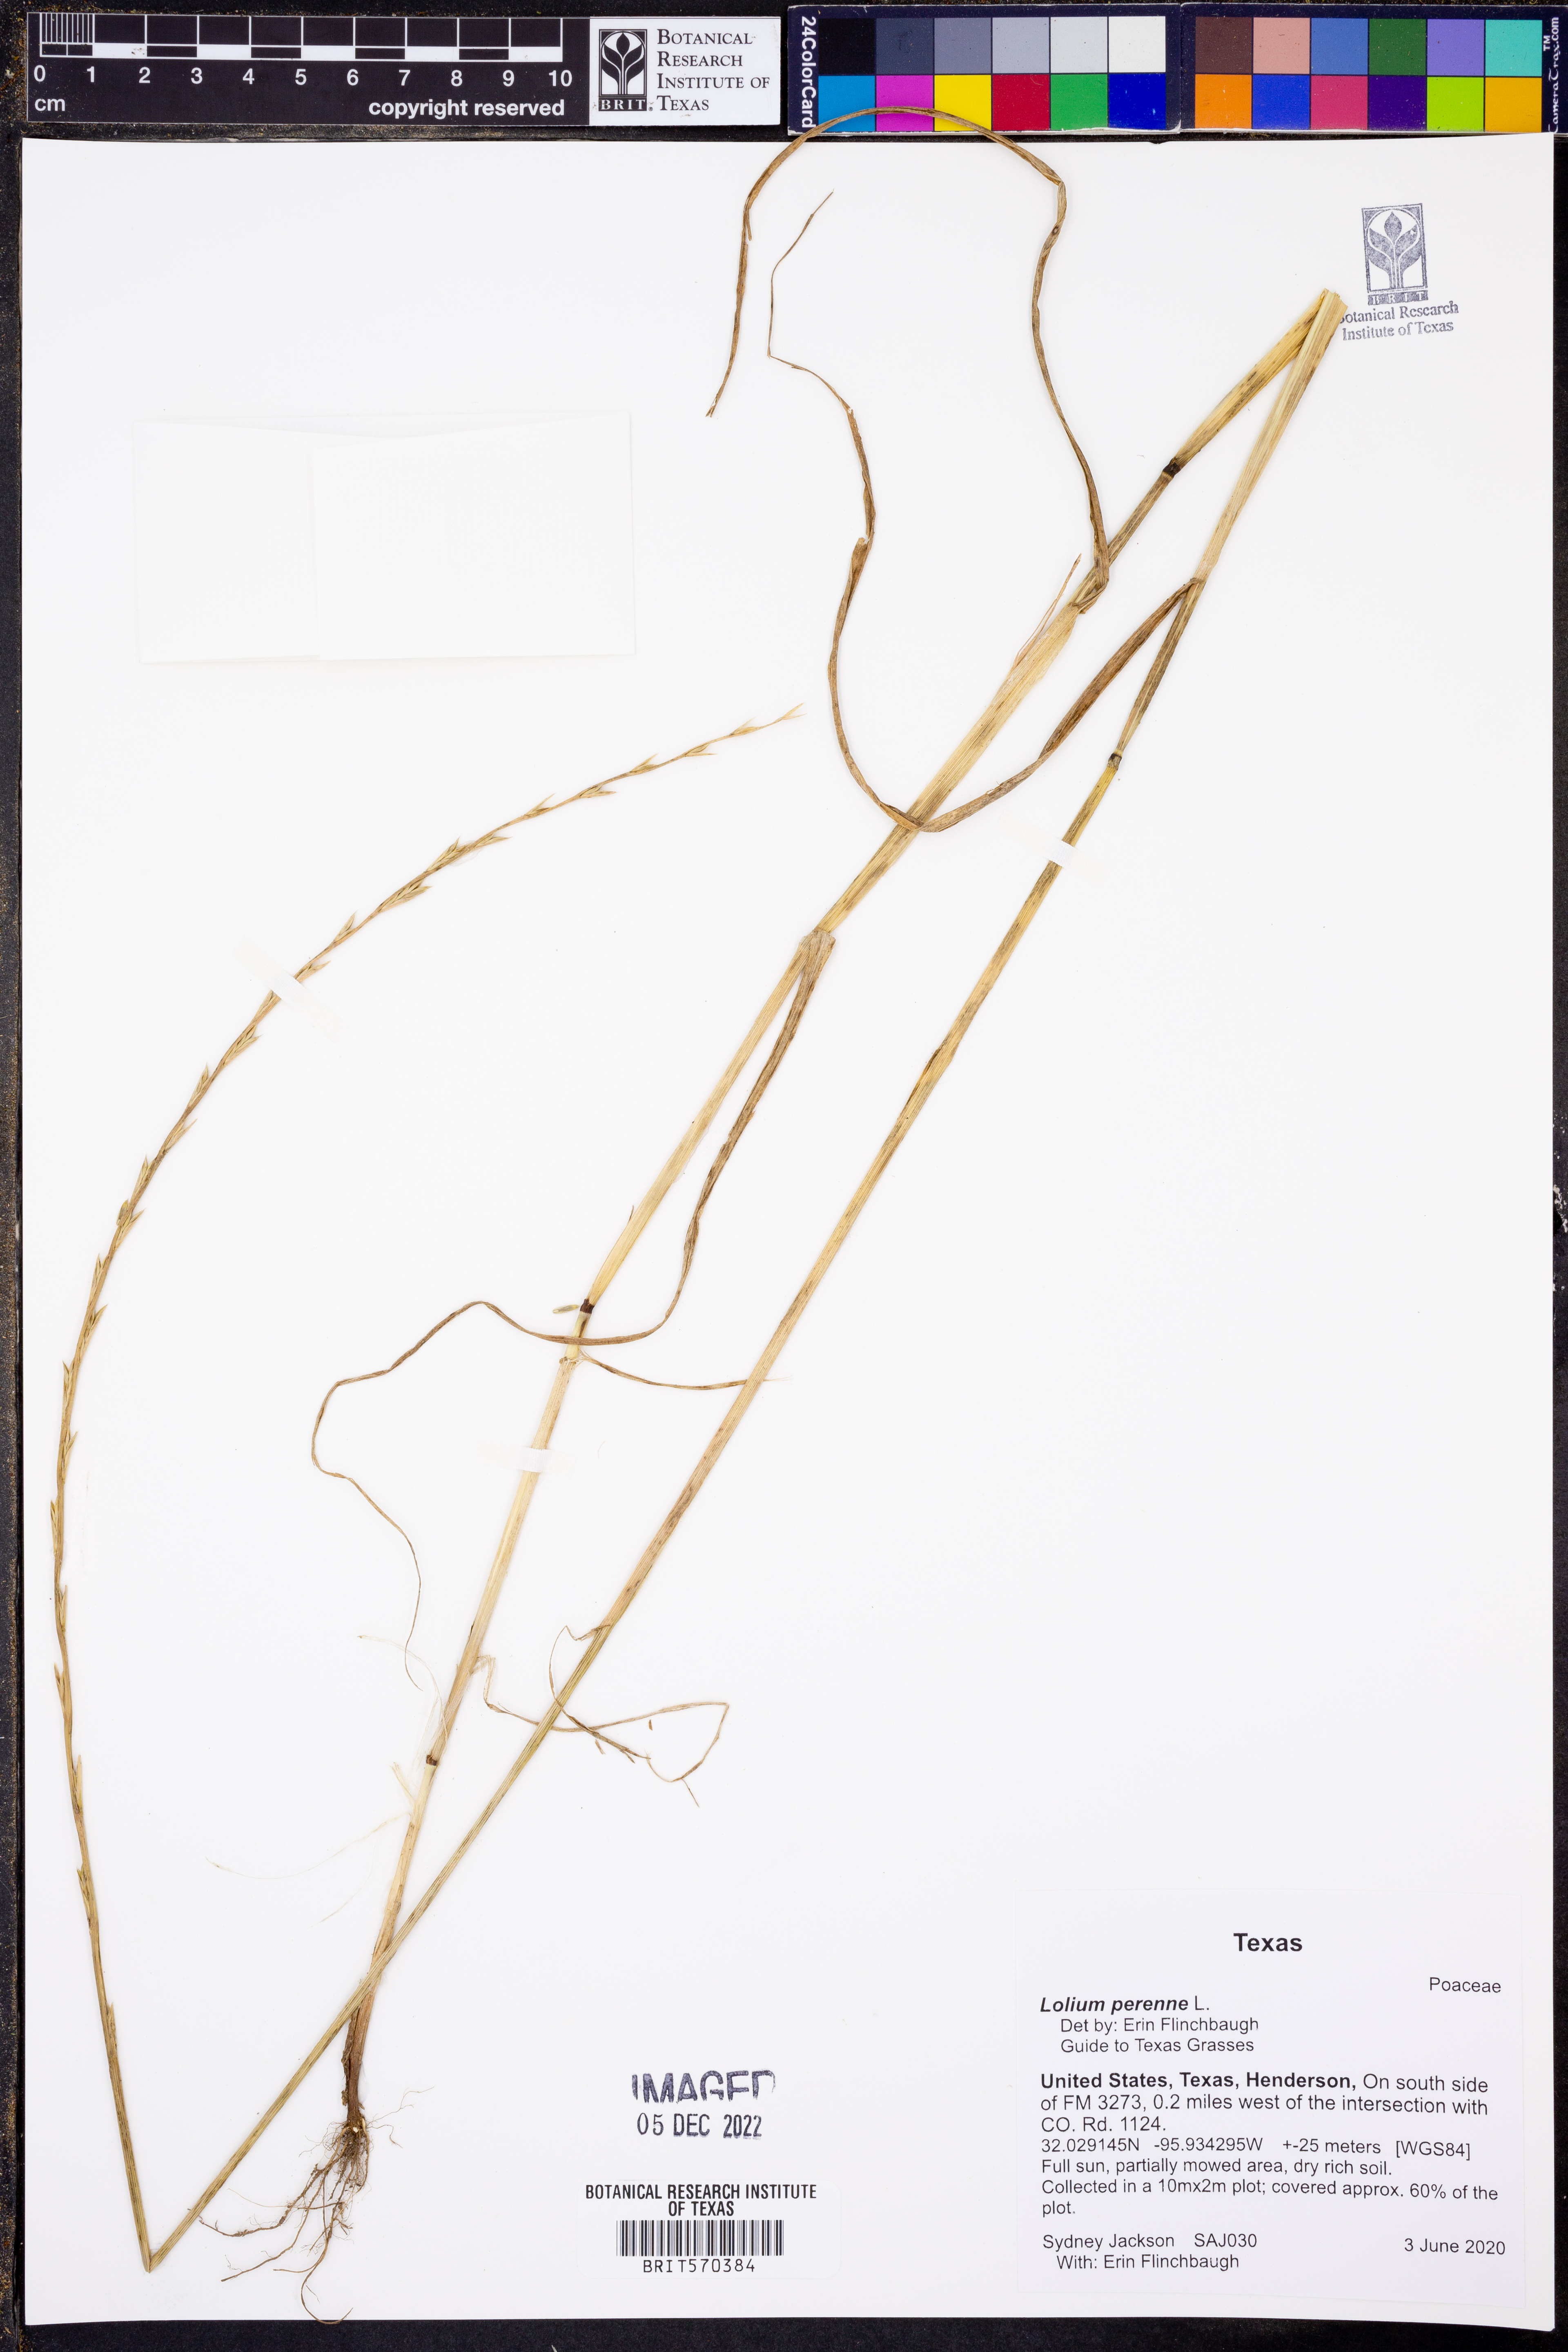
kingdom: Plantae
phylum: Tracheophyta
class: Liliopsida
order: Poales
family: Poaceae
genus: Lolium
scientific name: Lolium perenne
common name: Perennial ryegrass
